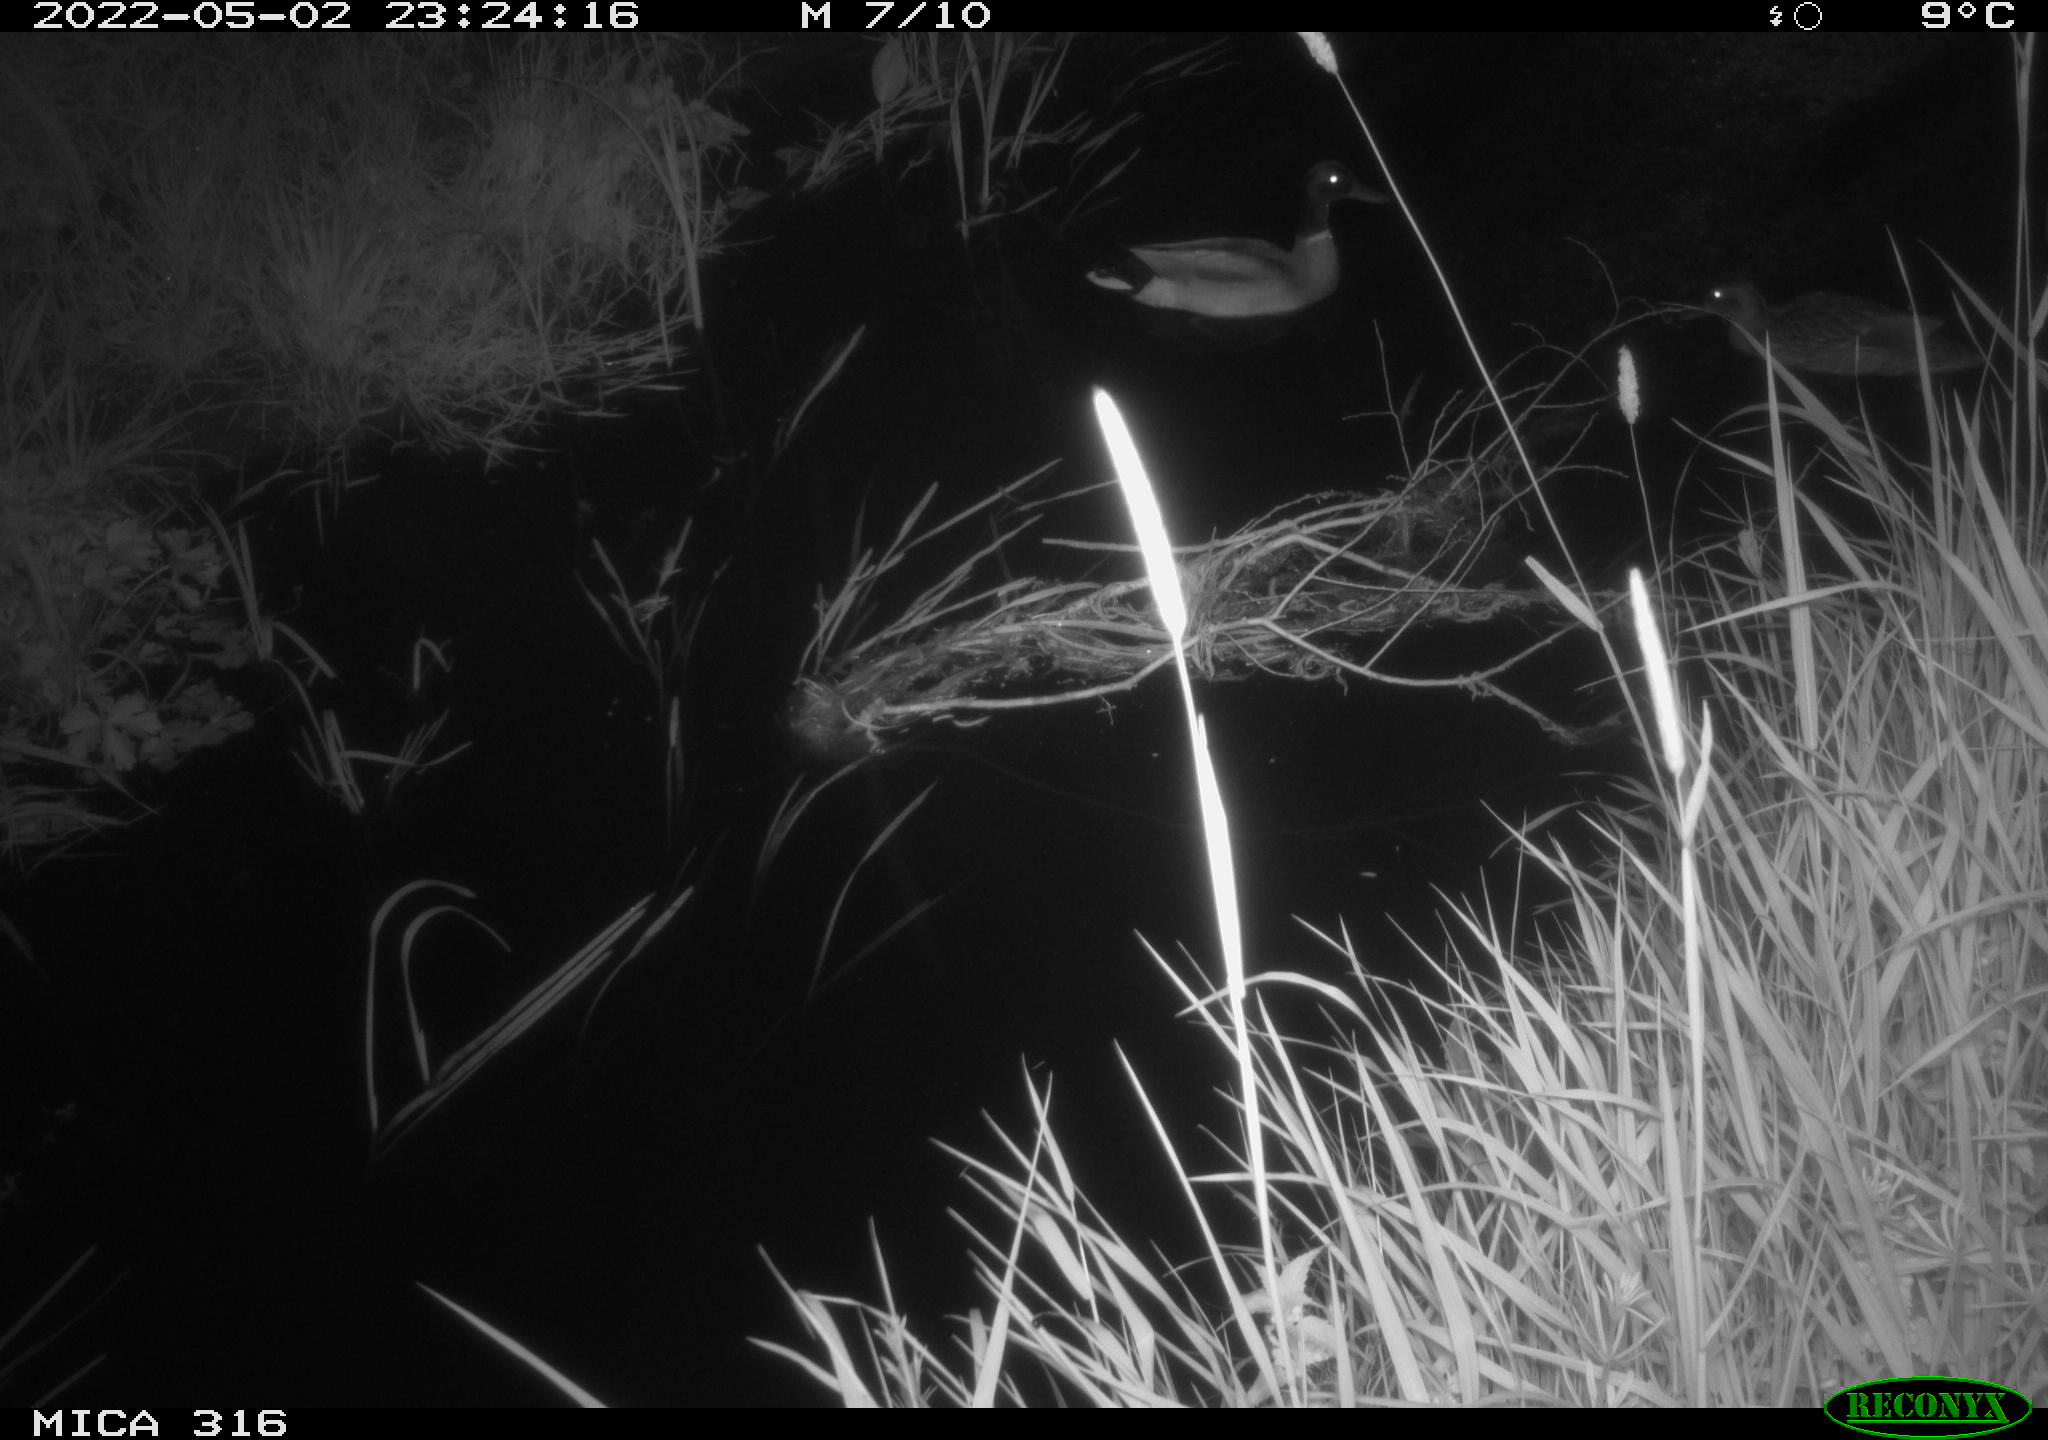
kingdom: Animalia
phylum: Chordata
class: Aves
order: Anseriformes
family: Anatidae
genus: Anas
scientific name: Anas platyrhynchos
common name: Mallard
